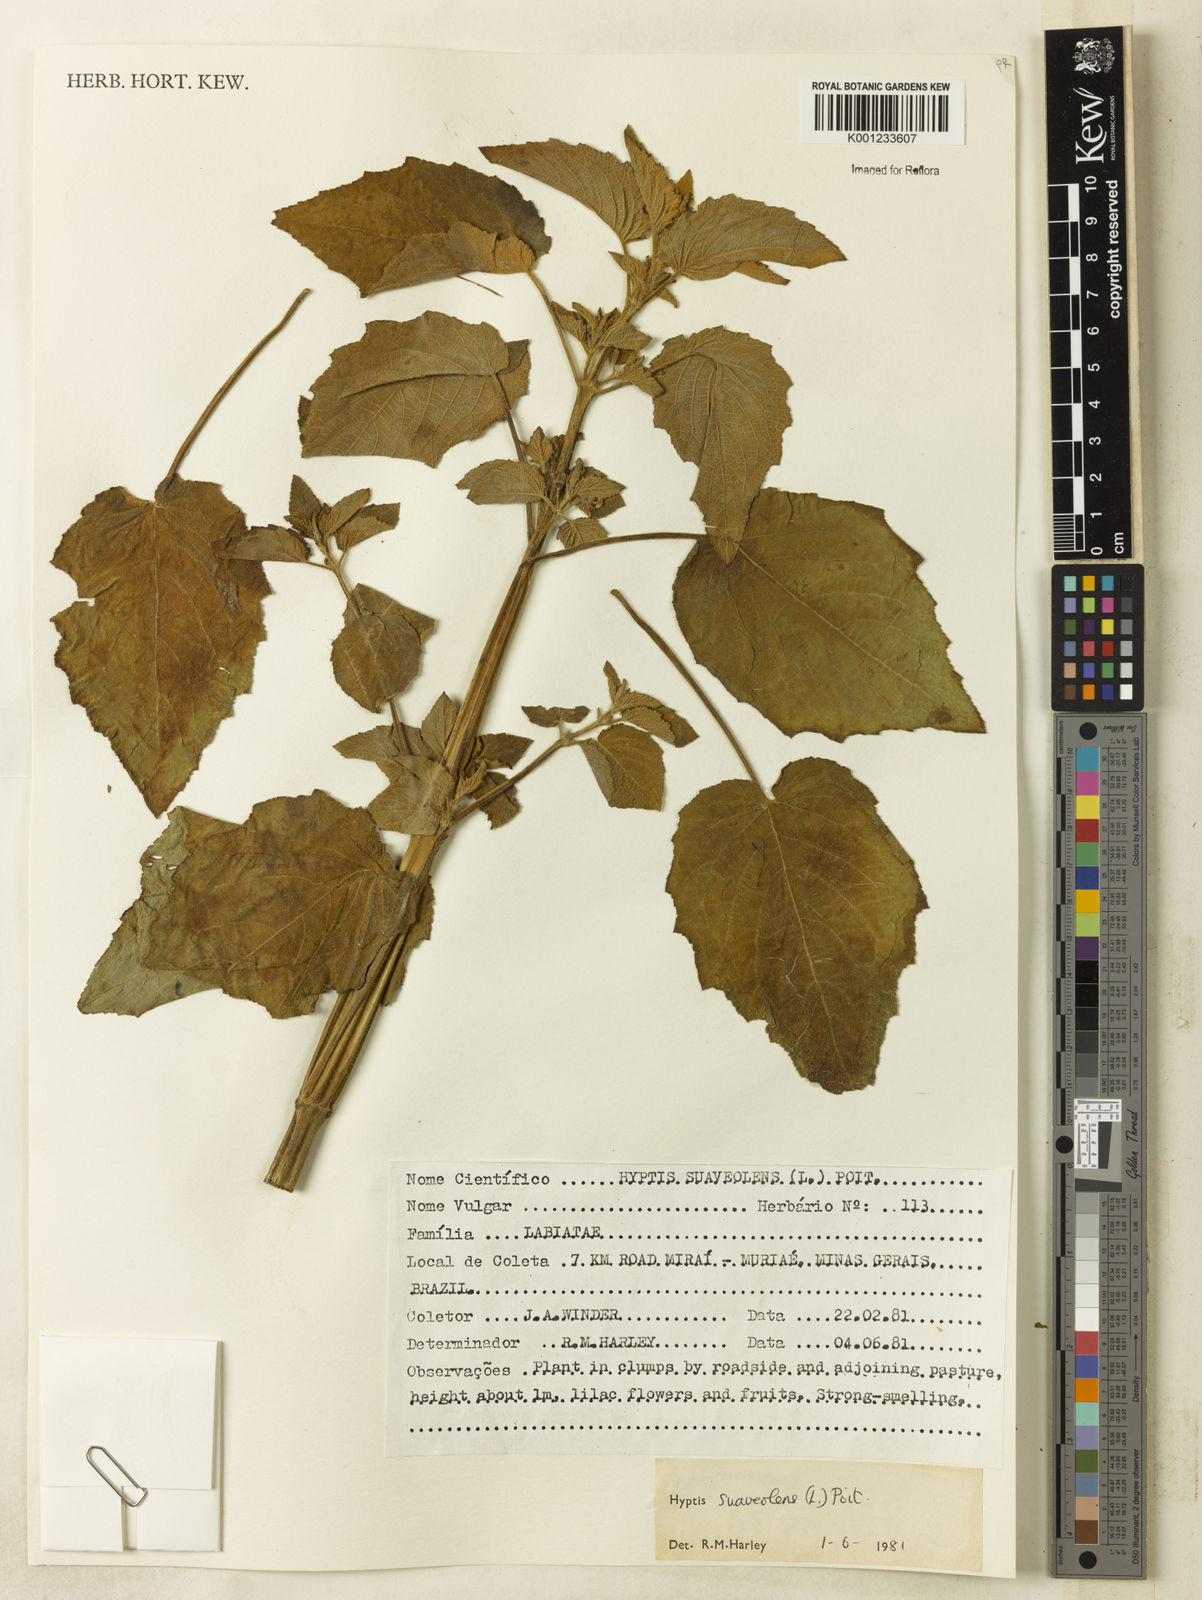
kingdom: Plantae
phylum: Tracheophyta
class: Magnoliopsida
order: Lamiales
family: Lamiaceae
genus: Mesosphaerum
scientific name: Mesosphaerum suaveolens
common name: Pignut
